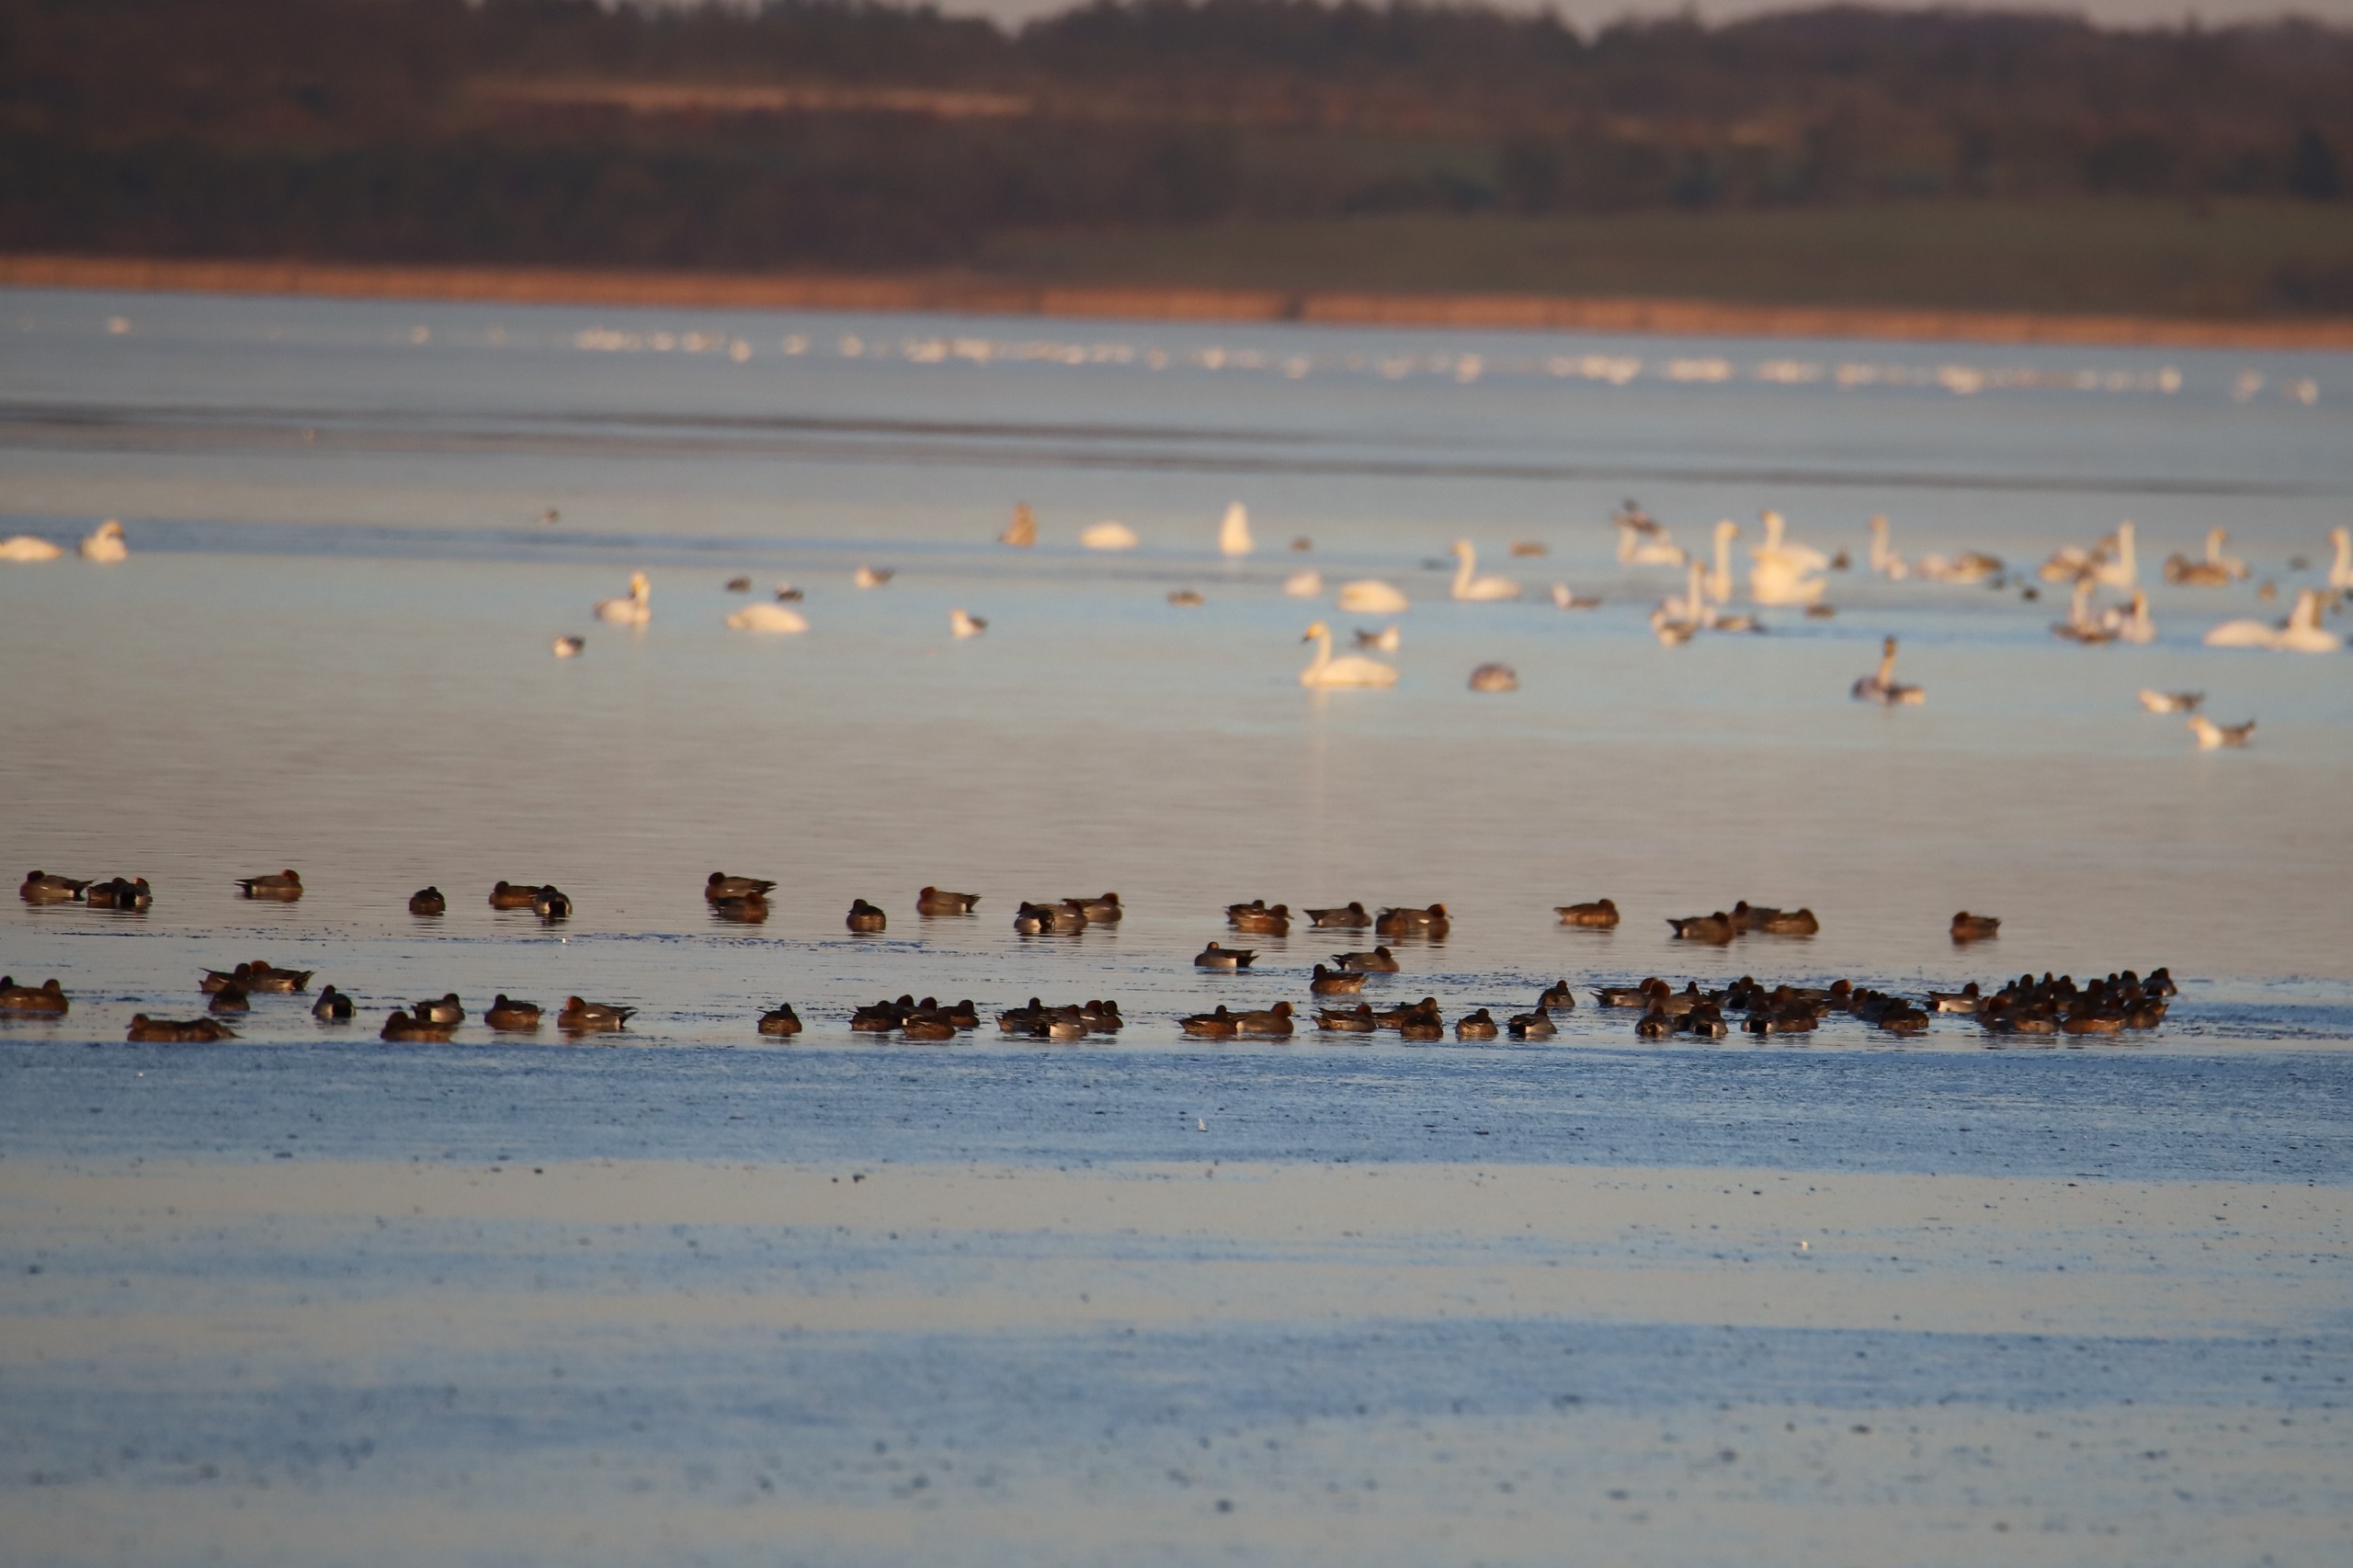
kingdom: Animalia
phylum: Chordata
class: Aves
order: Anseriformes
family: Anatidae
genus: Mareca
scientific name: Mareca penelope
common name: Pibeand
